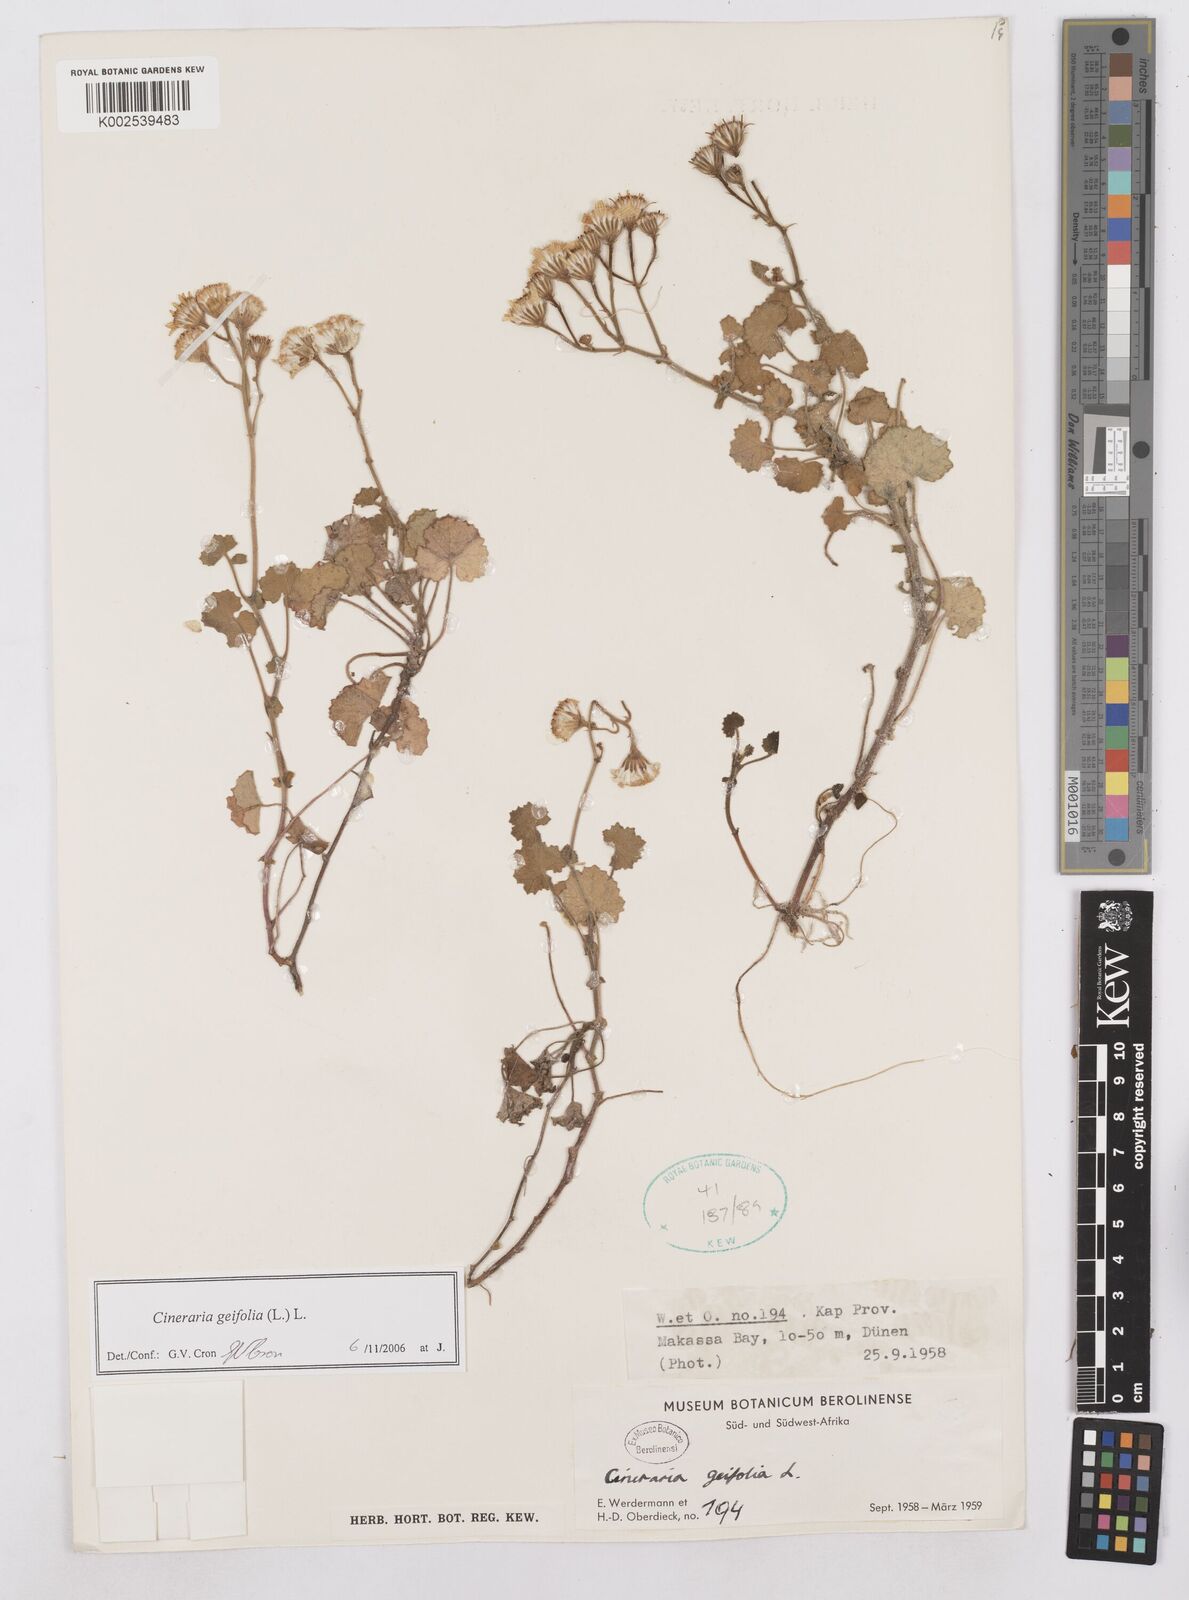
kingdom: Plantae
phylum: Tracheophyta
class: Magnoliopsida
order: Asterales
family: Asteraceae
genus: Cineraria
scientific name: Cineraria geifolia
